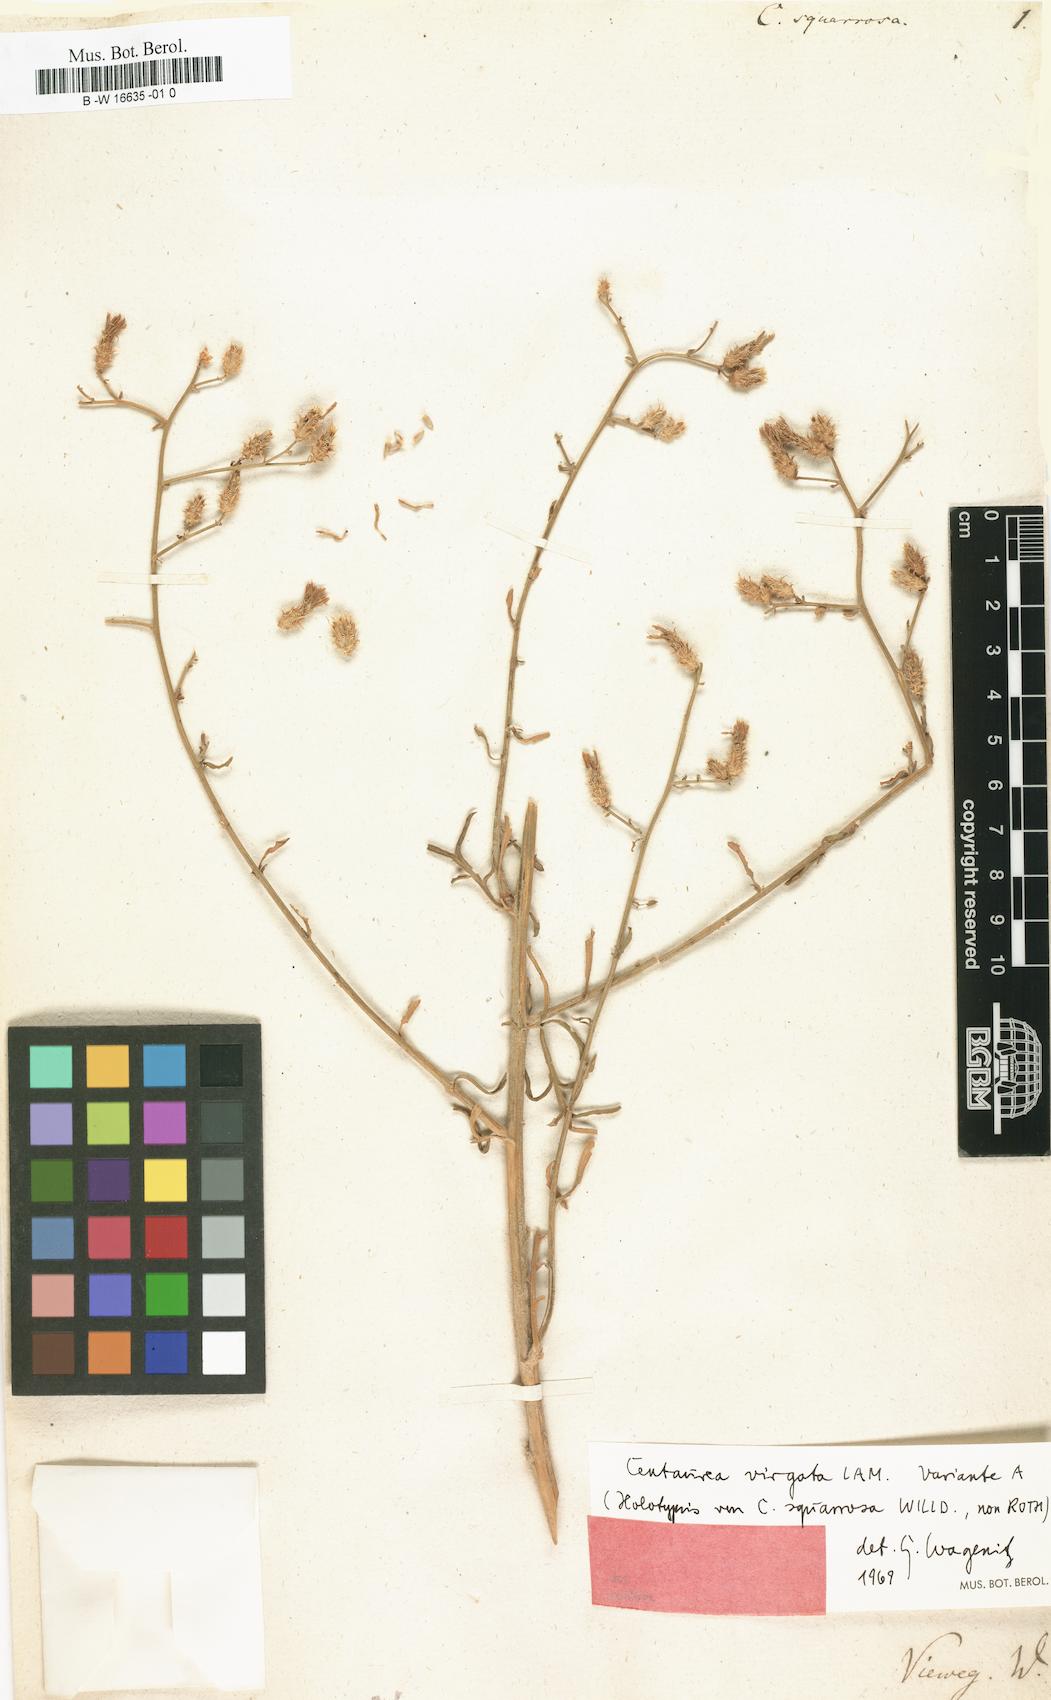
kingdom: Plantae
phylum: Tracheophyta
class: Magnoliopsida
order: Asterales
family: Asteraceae
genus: Centaurea
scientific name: Centaurea
